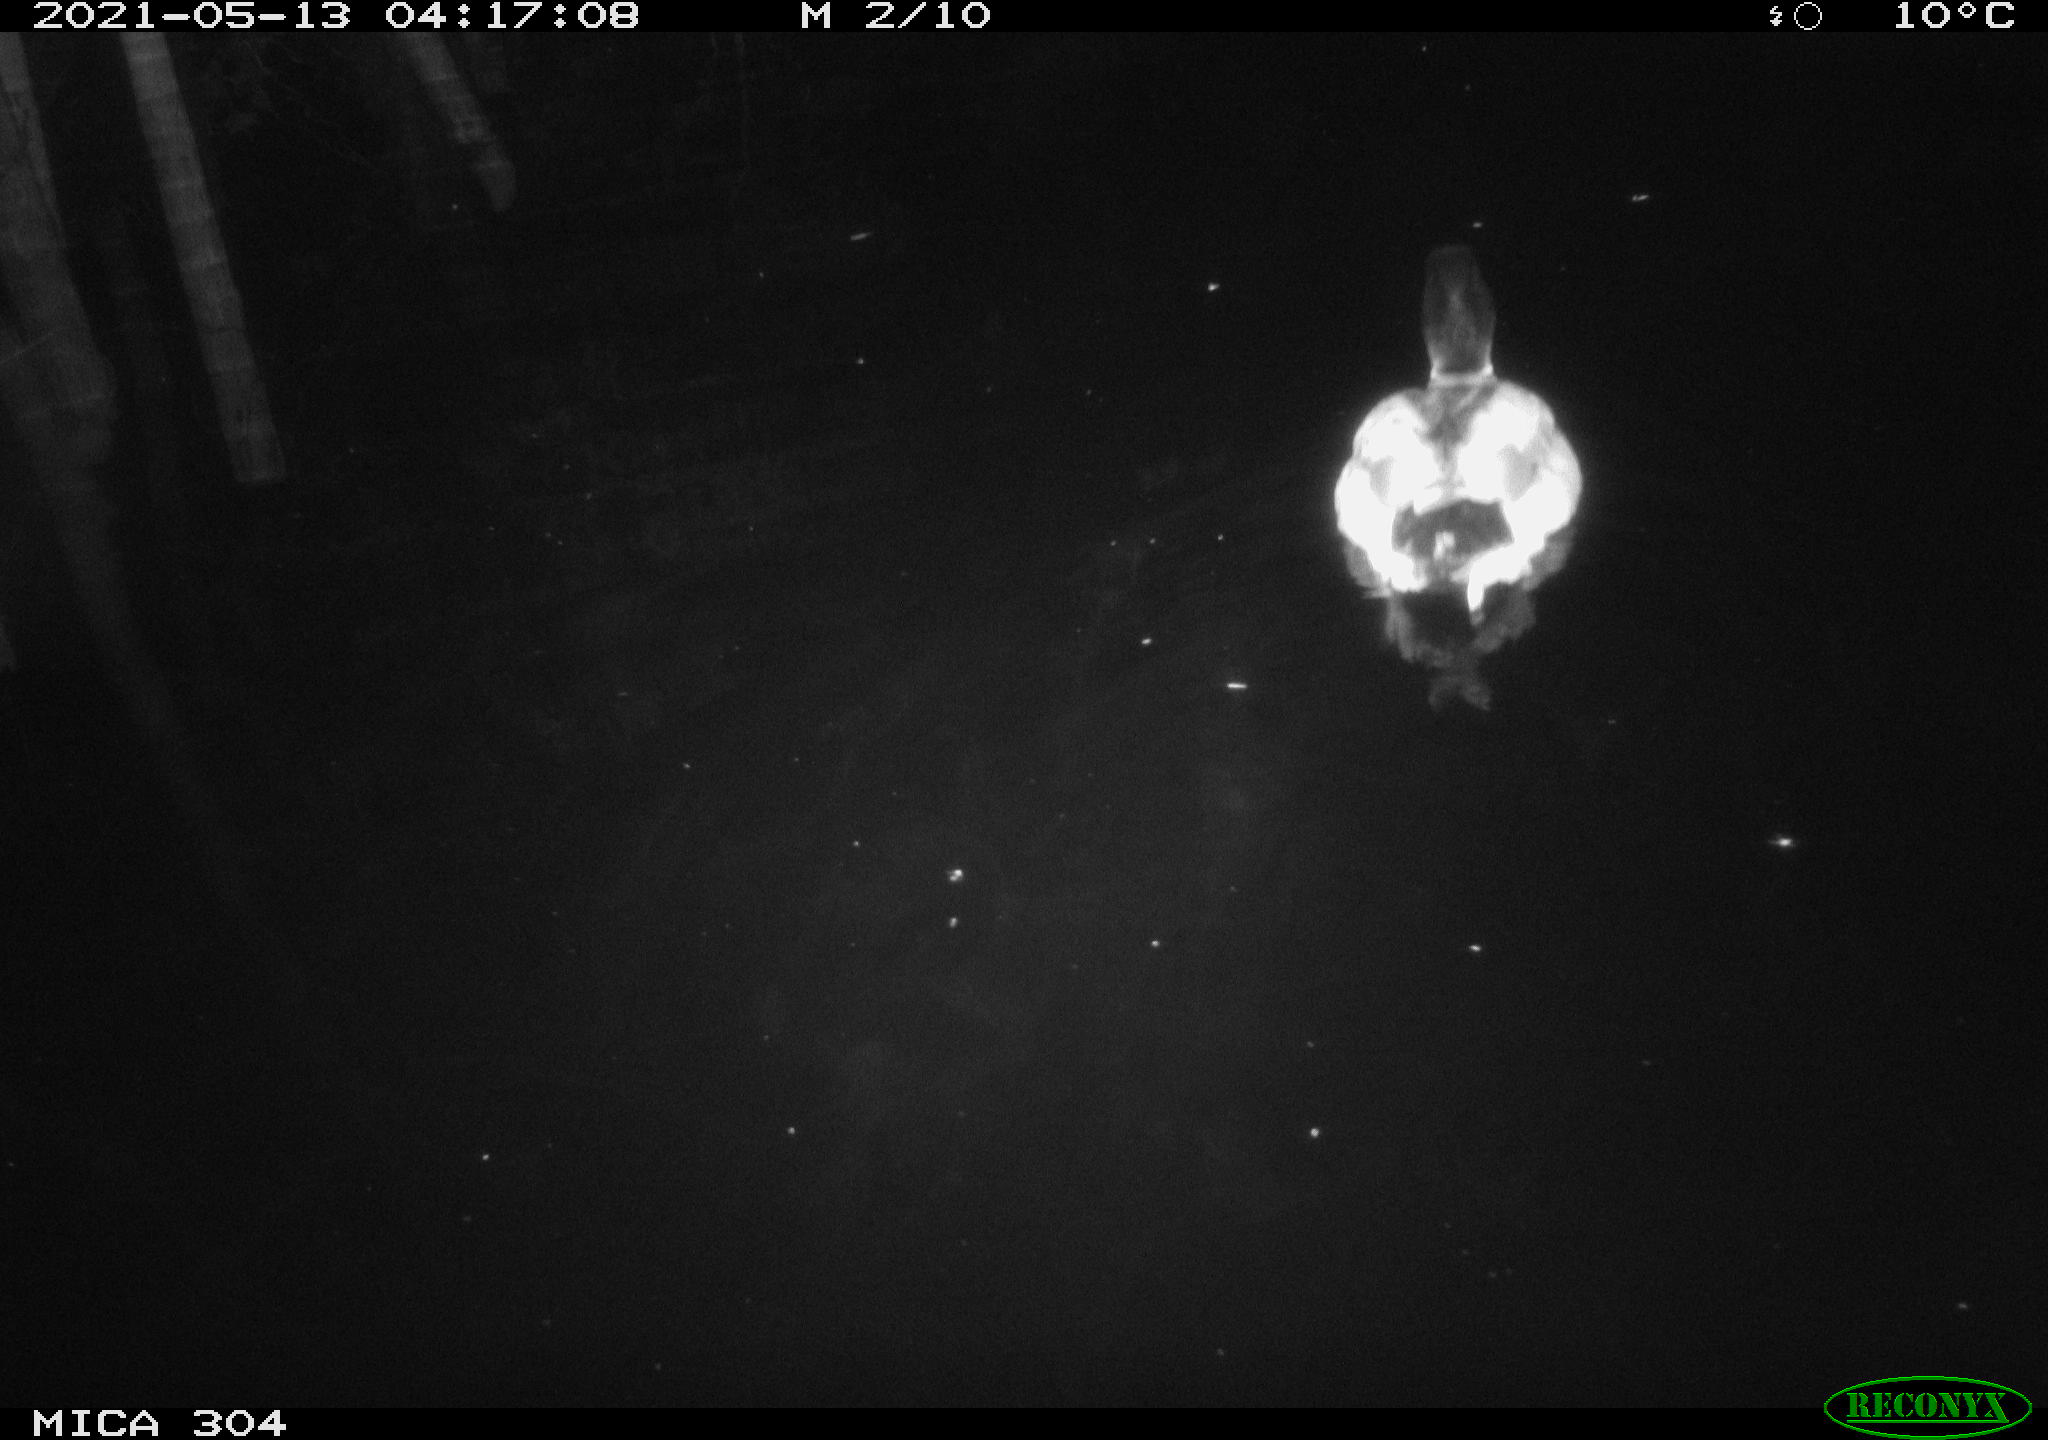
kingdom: Animalia
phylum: Chordata
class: Aves
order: Anseriformes
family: Anatidae
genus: Anas
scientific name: Anas platyrhynchos
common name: Mallard
